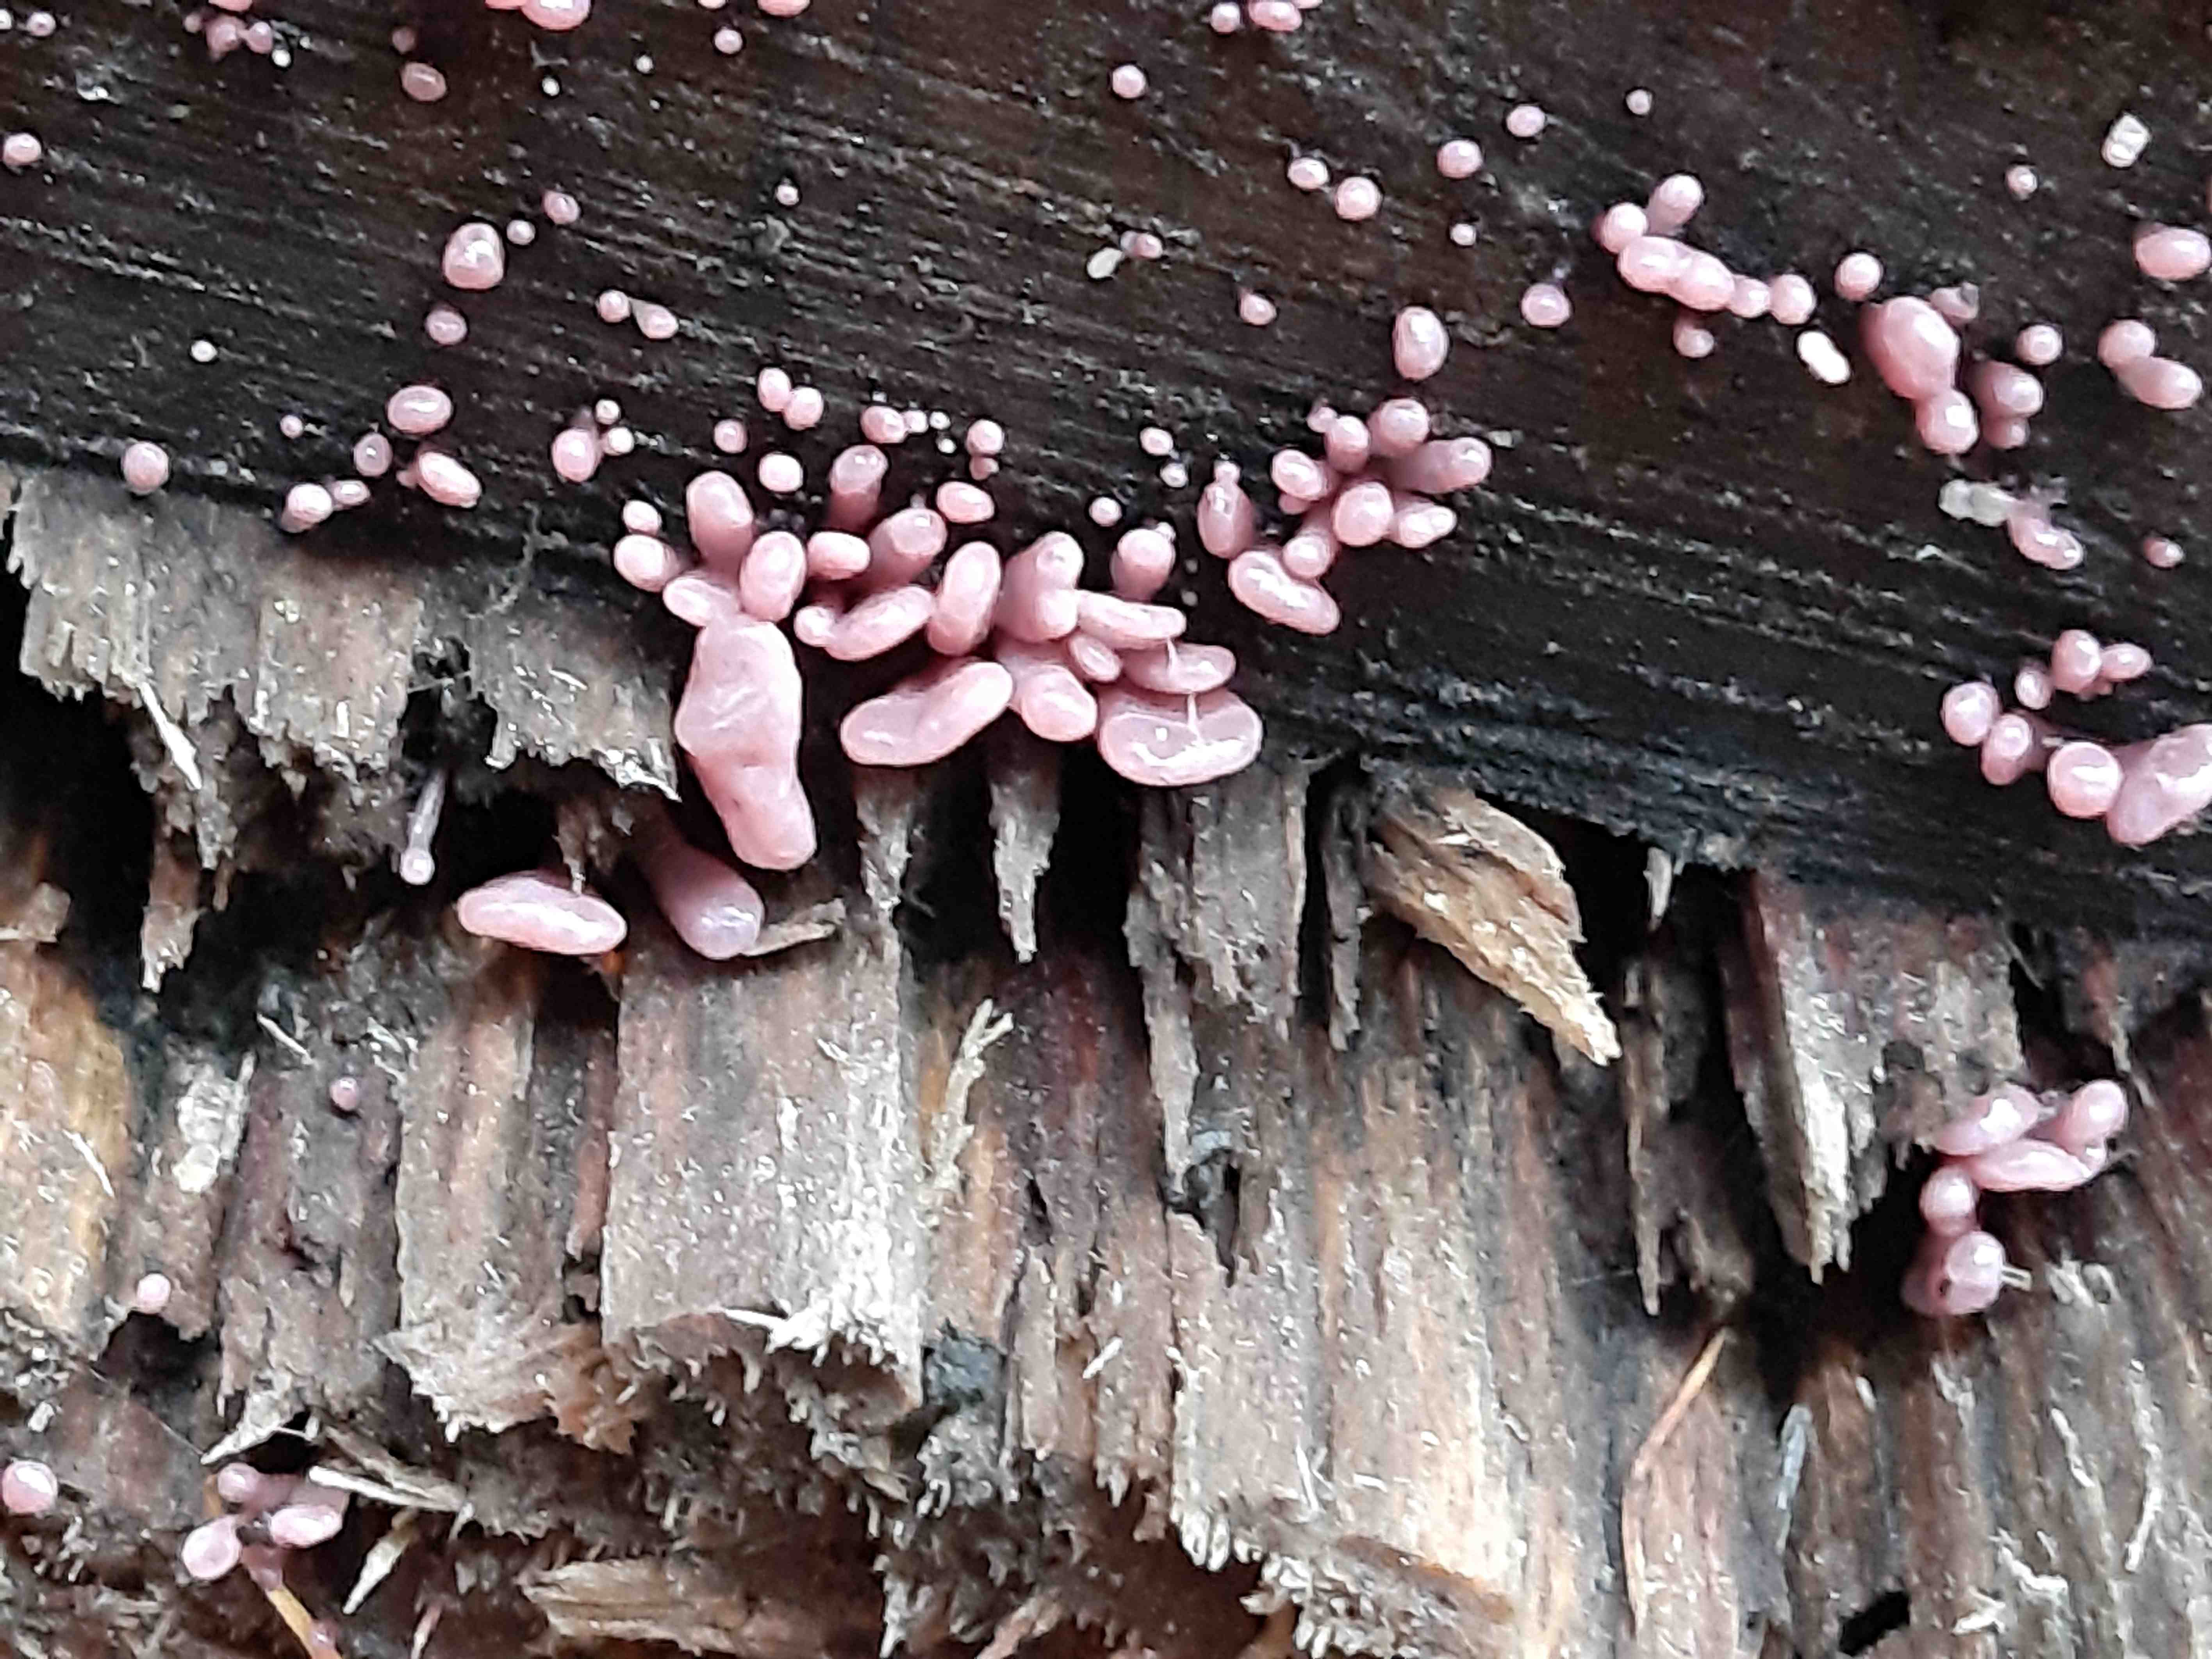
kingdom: Fungi
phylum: Ascomycota
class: Leotiomycetes
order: Helotiales
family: Gelatinodiscaceae
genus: Ascocoryne
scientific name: Ascocoryne sarcoides
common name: rødlilla sejskive
